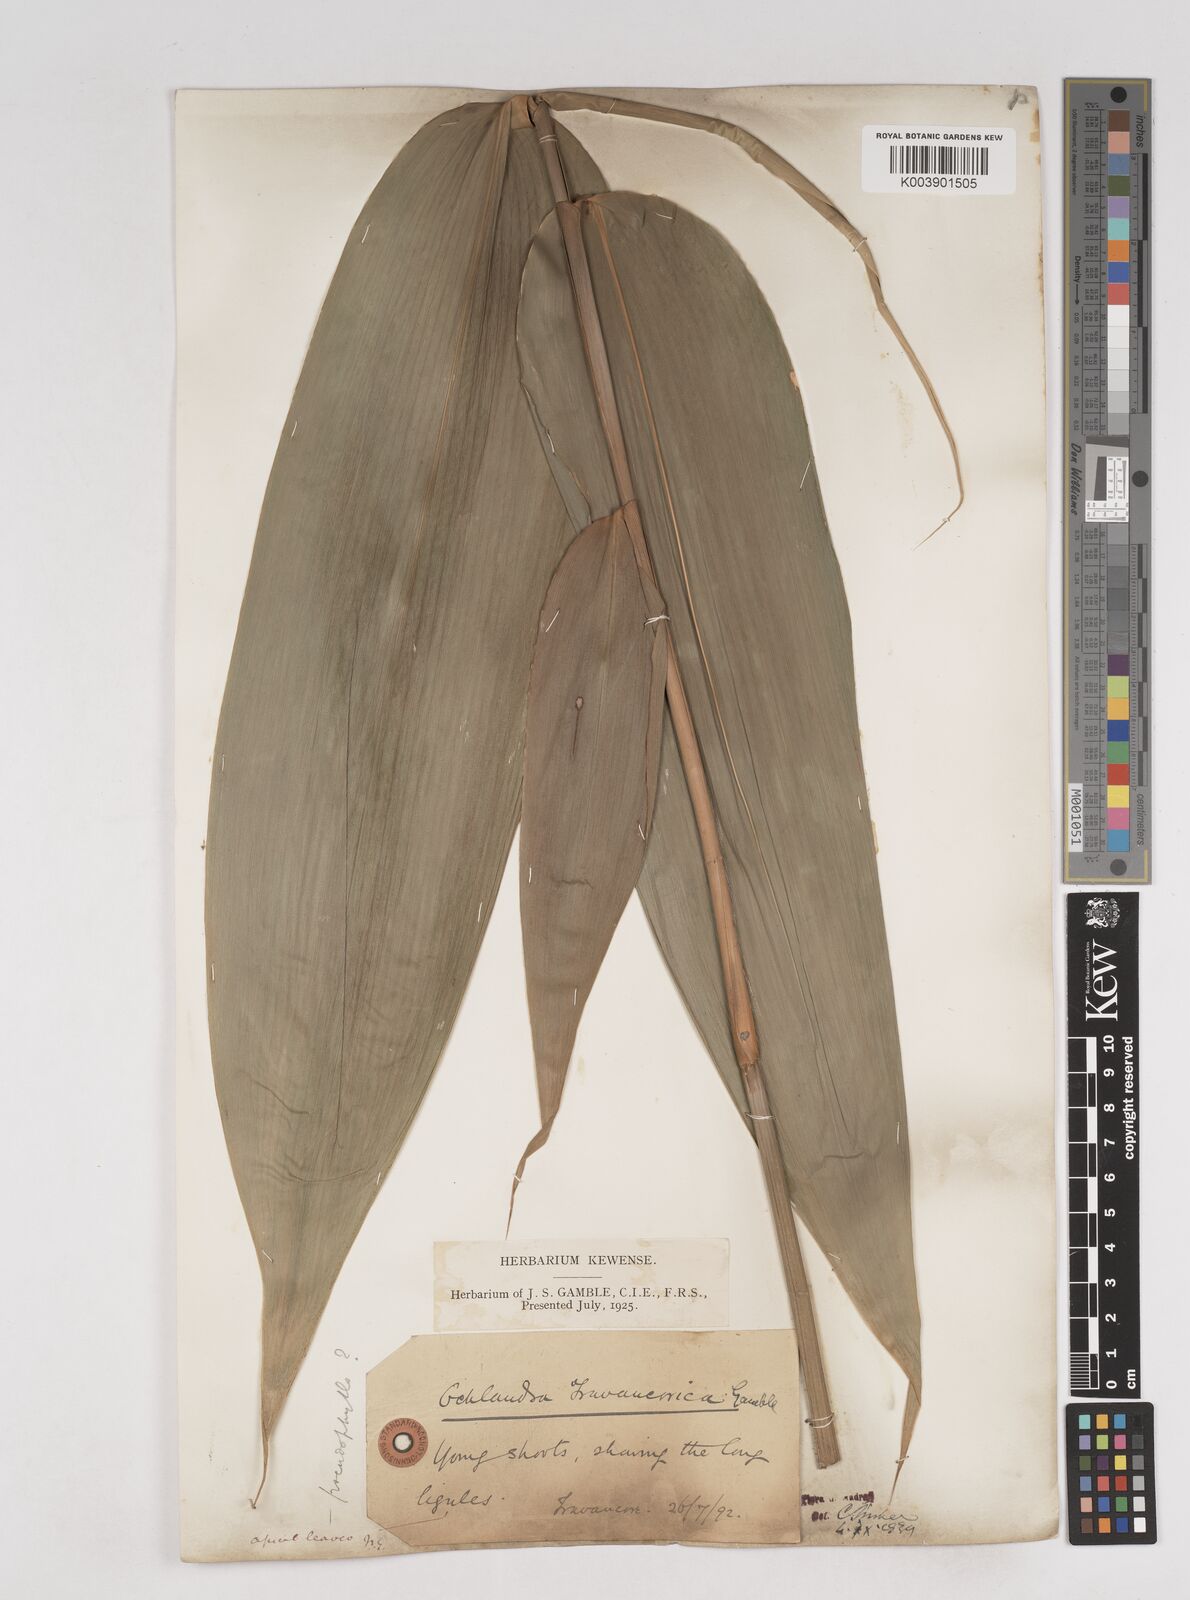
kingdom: Plantae
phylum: Tracheophyta
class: Liliopsida
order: Poales
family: Poaceae
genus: Ochlandra
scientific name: Ochlandra travancorica
